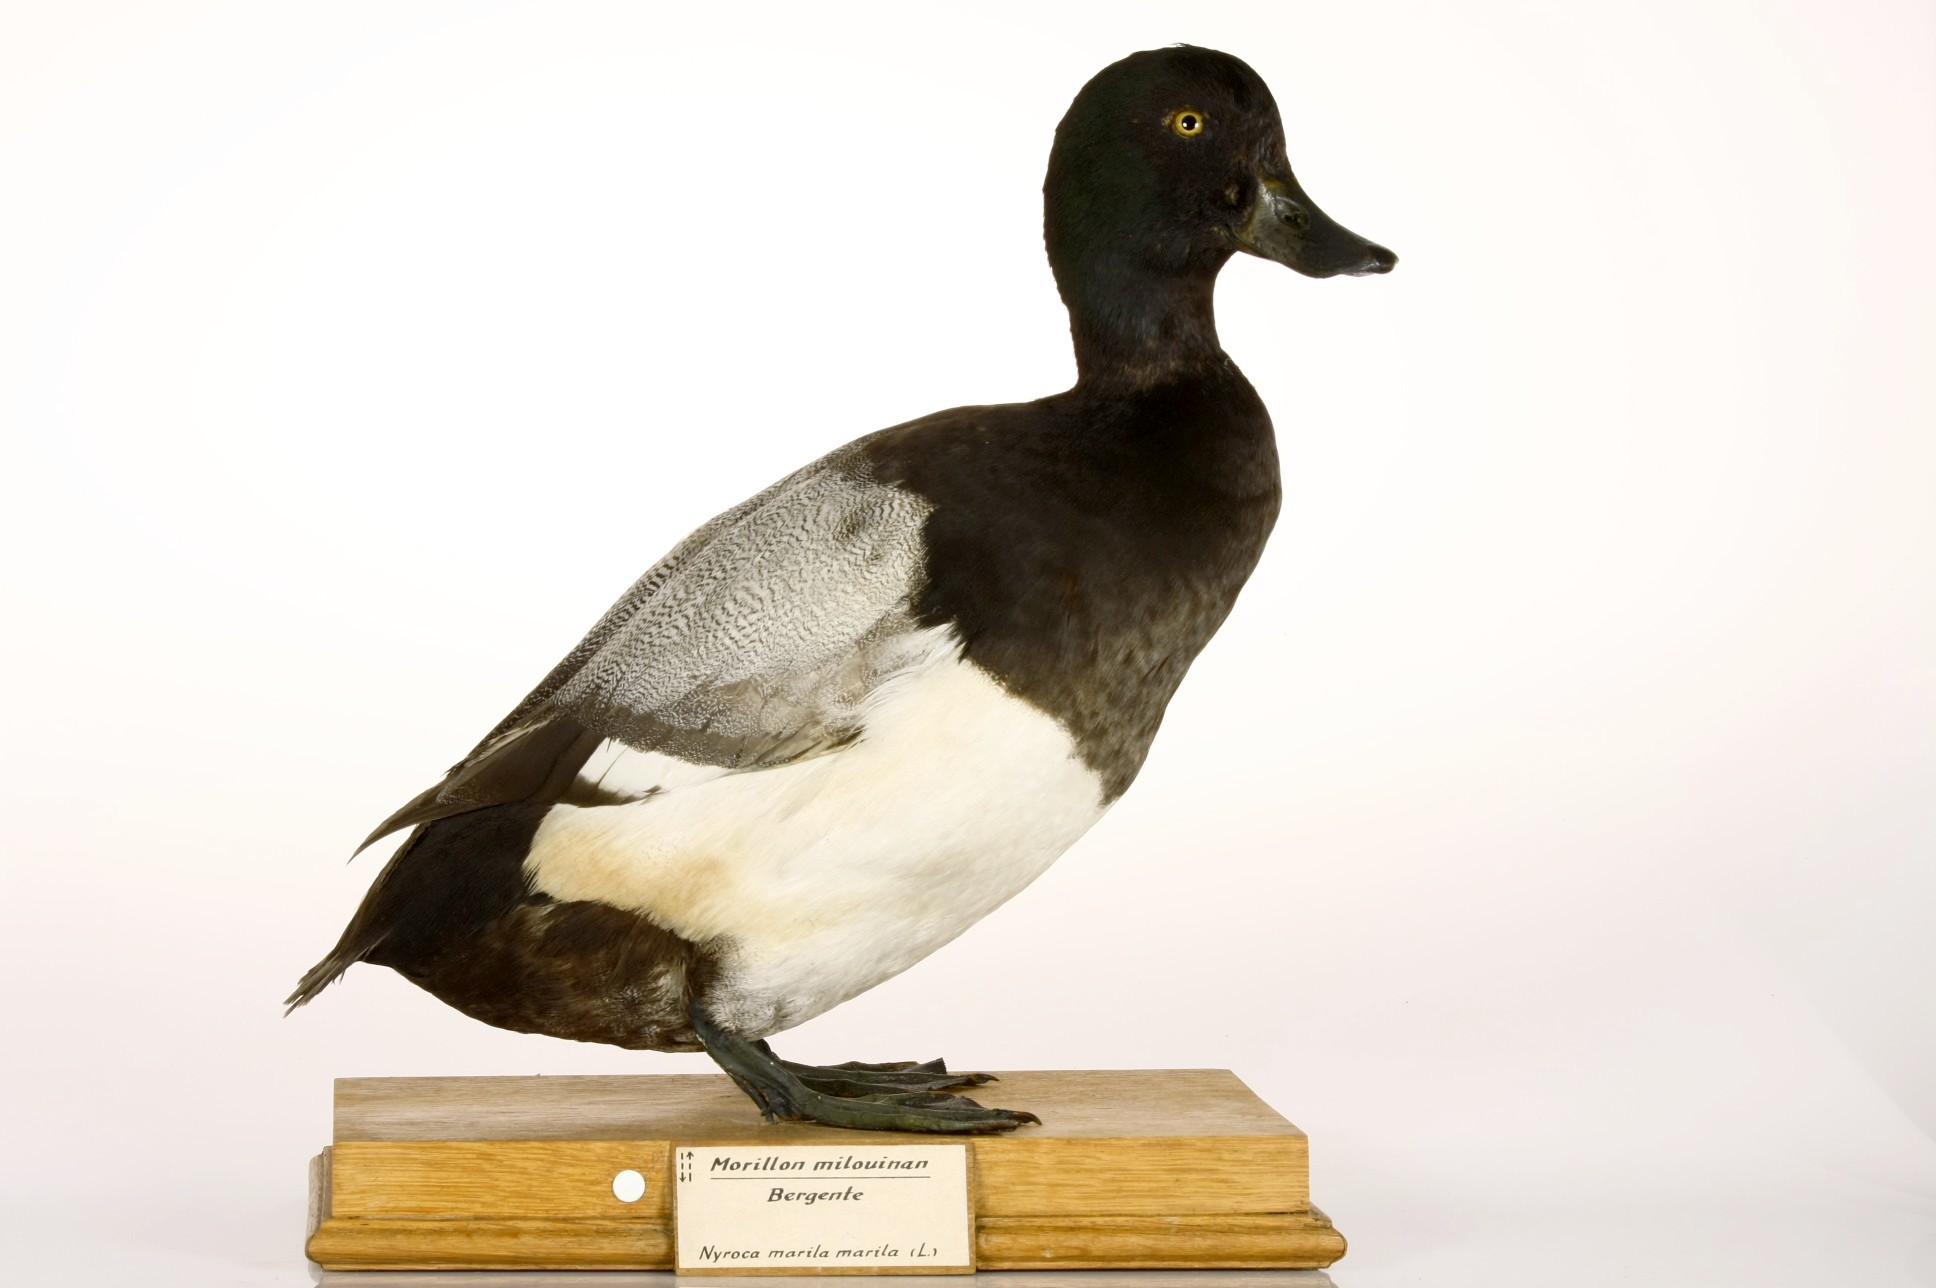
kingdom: Animalia
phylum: Chordata
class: Aves
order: Anseriformes
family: Anatidae
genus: Aythya
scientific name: Aythya marila
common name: Greater scaup
